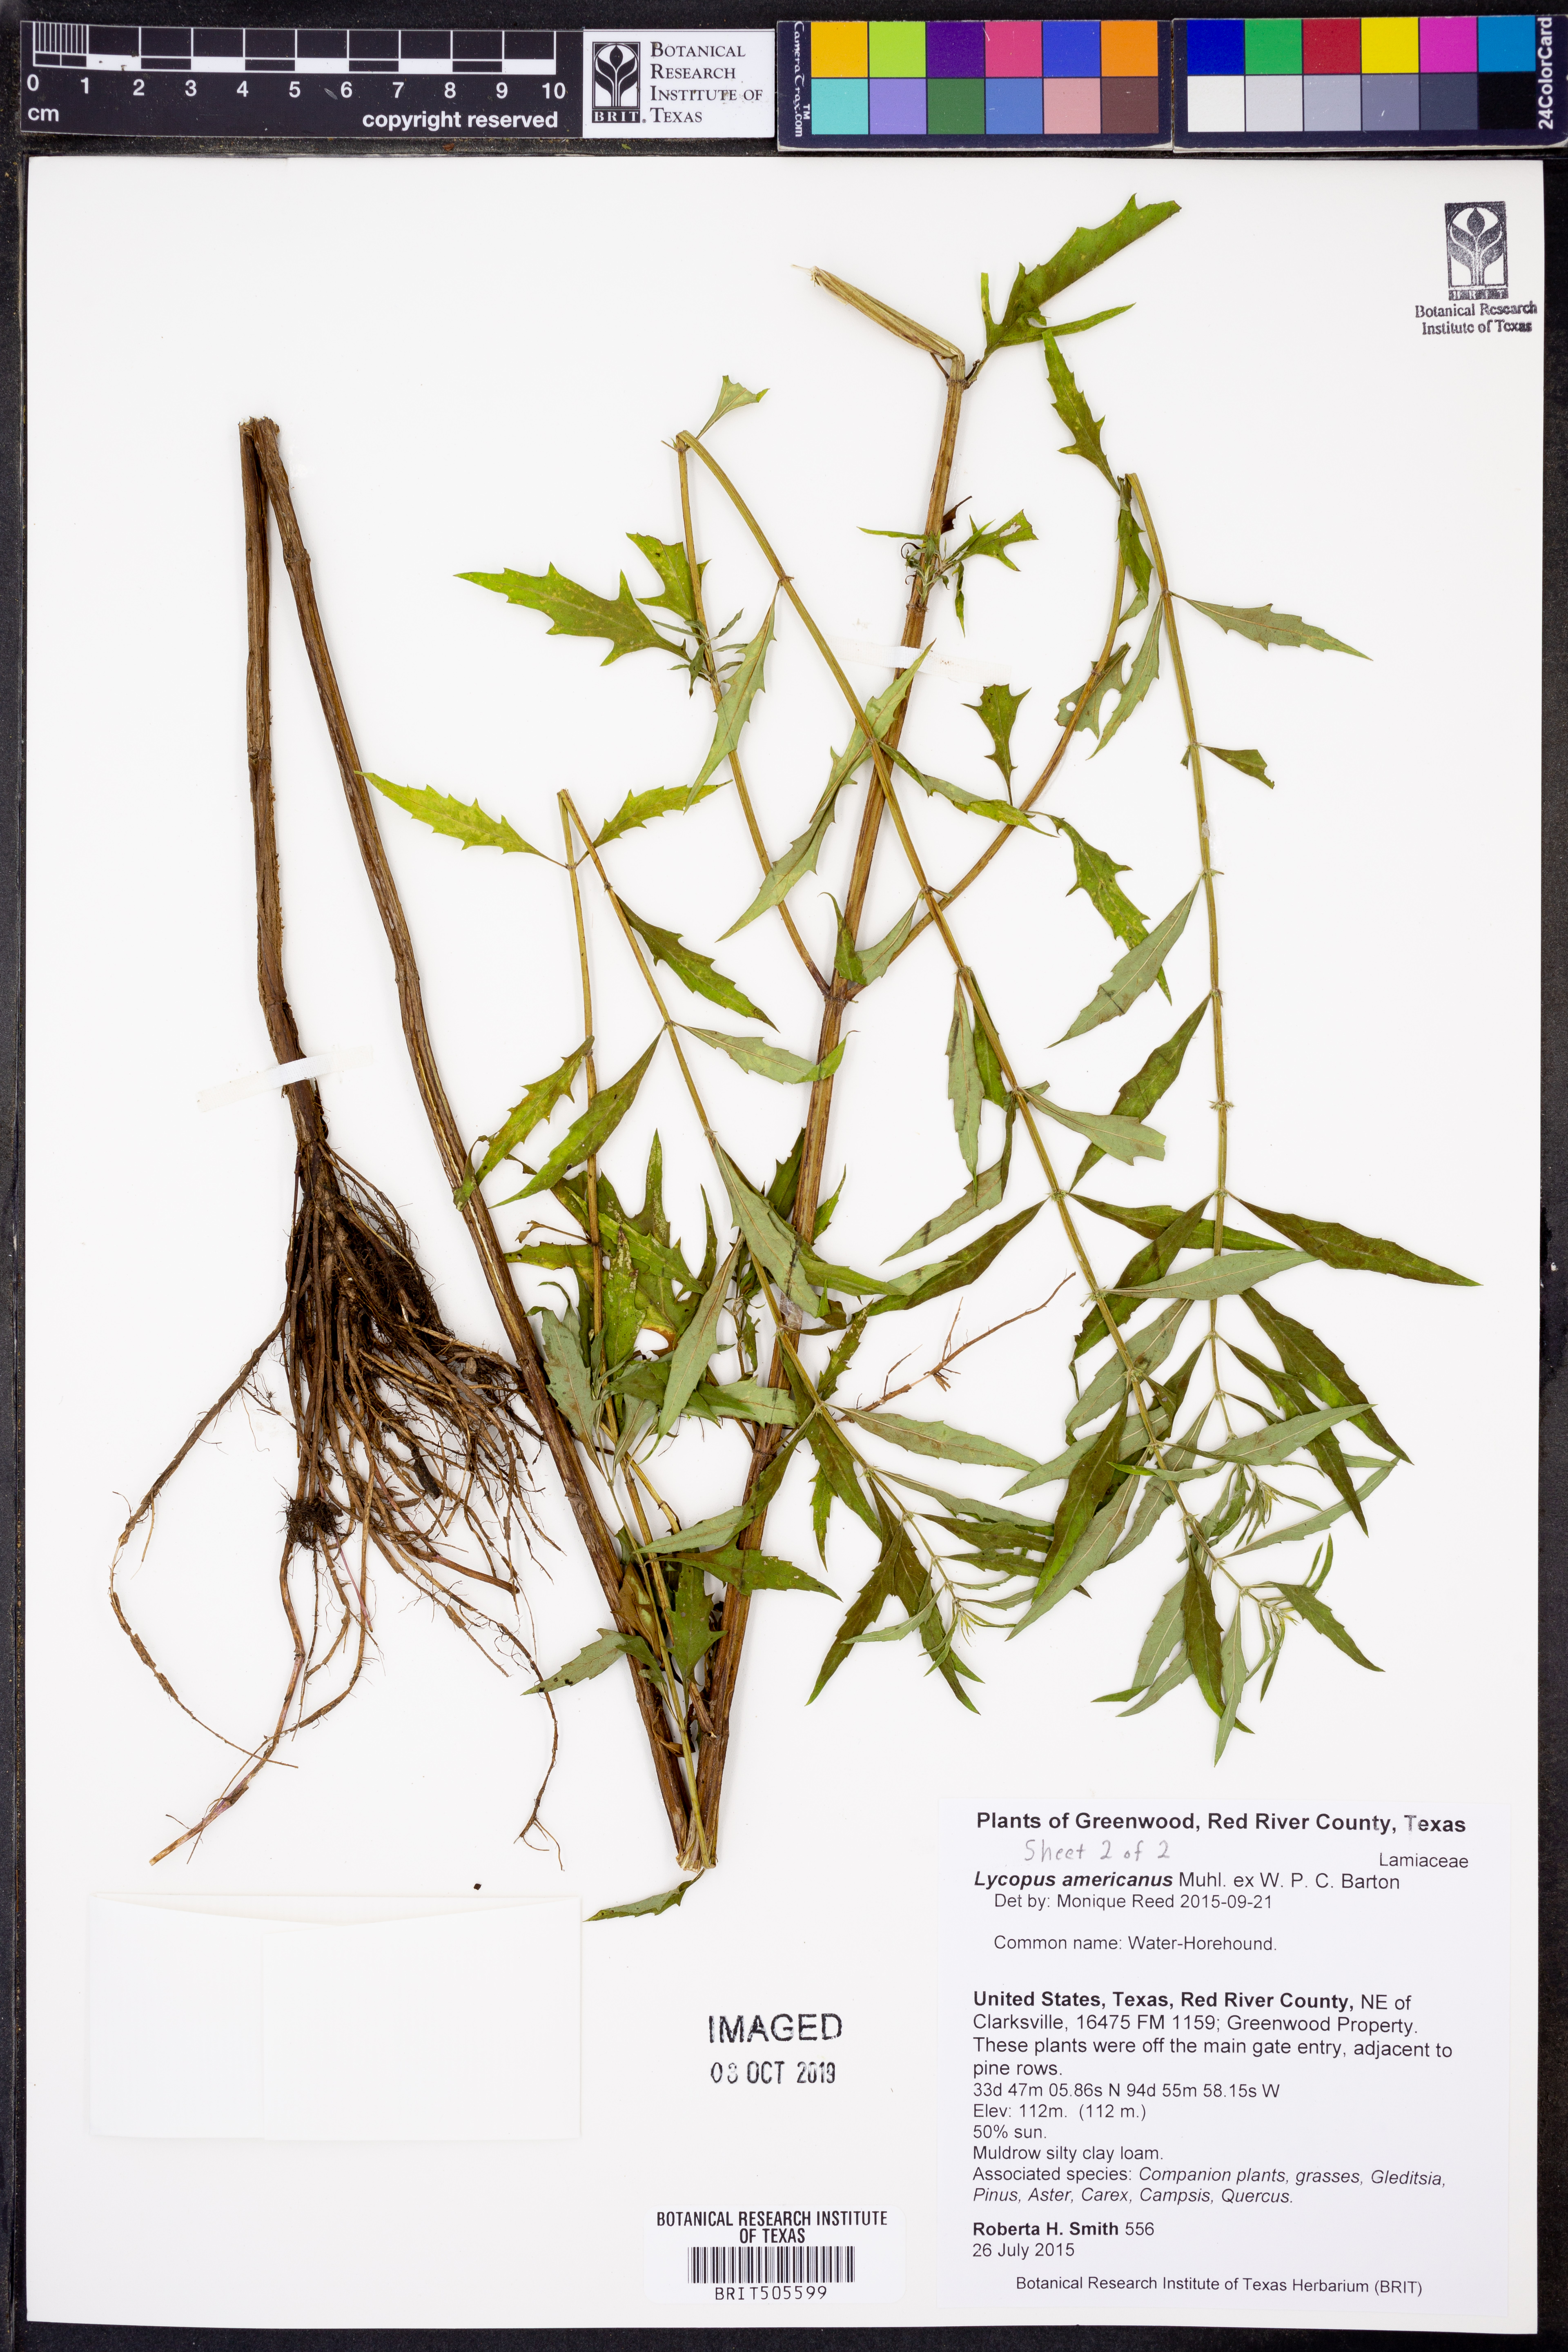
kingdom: Plantae
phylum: Tracheophyta
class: Magnoliopsida
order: Lamiales
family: Lamiaceae
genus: Lycopus
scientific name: Lycopus americanus
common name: American bugleweed
